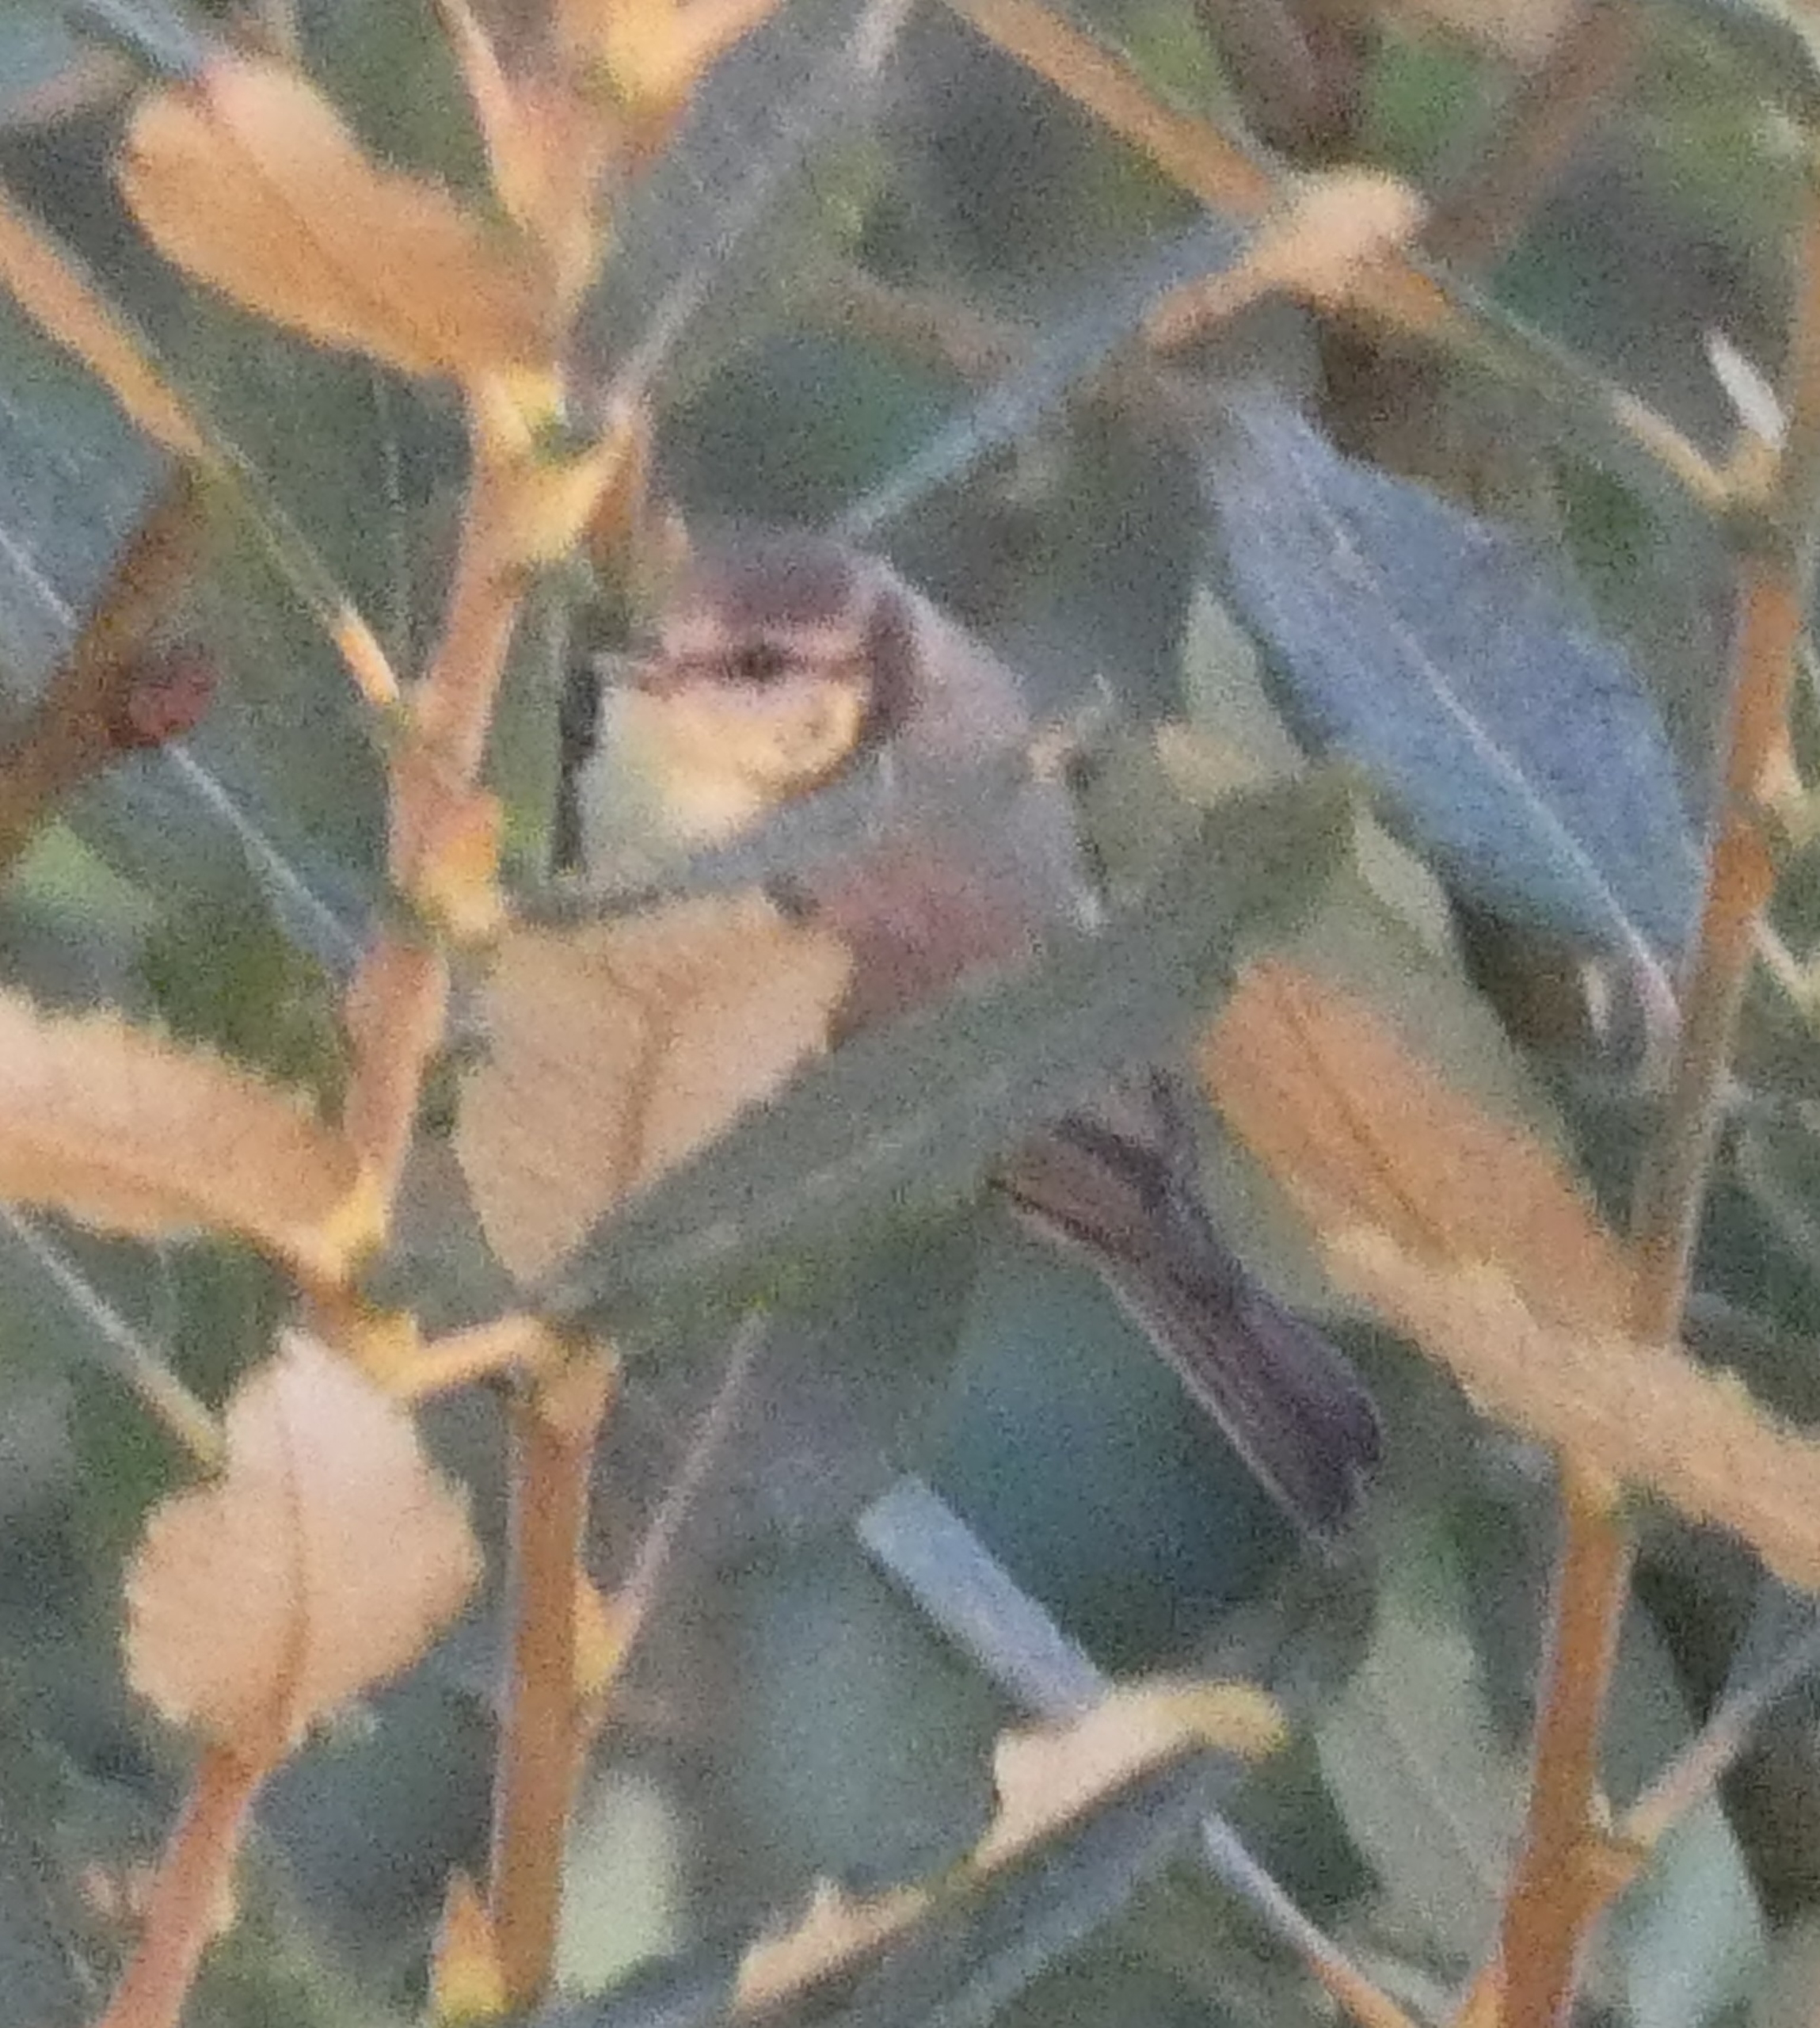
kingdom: Animalia
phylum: Chordata
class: Aves
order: Passeriformes
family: Paridae
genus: Cyanistes
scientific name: Cyanistes caeruleus
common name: Blåmejse
